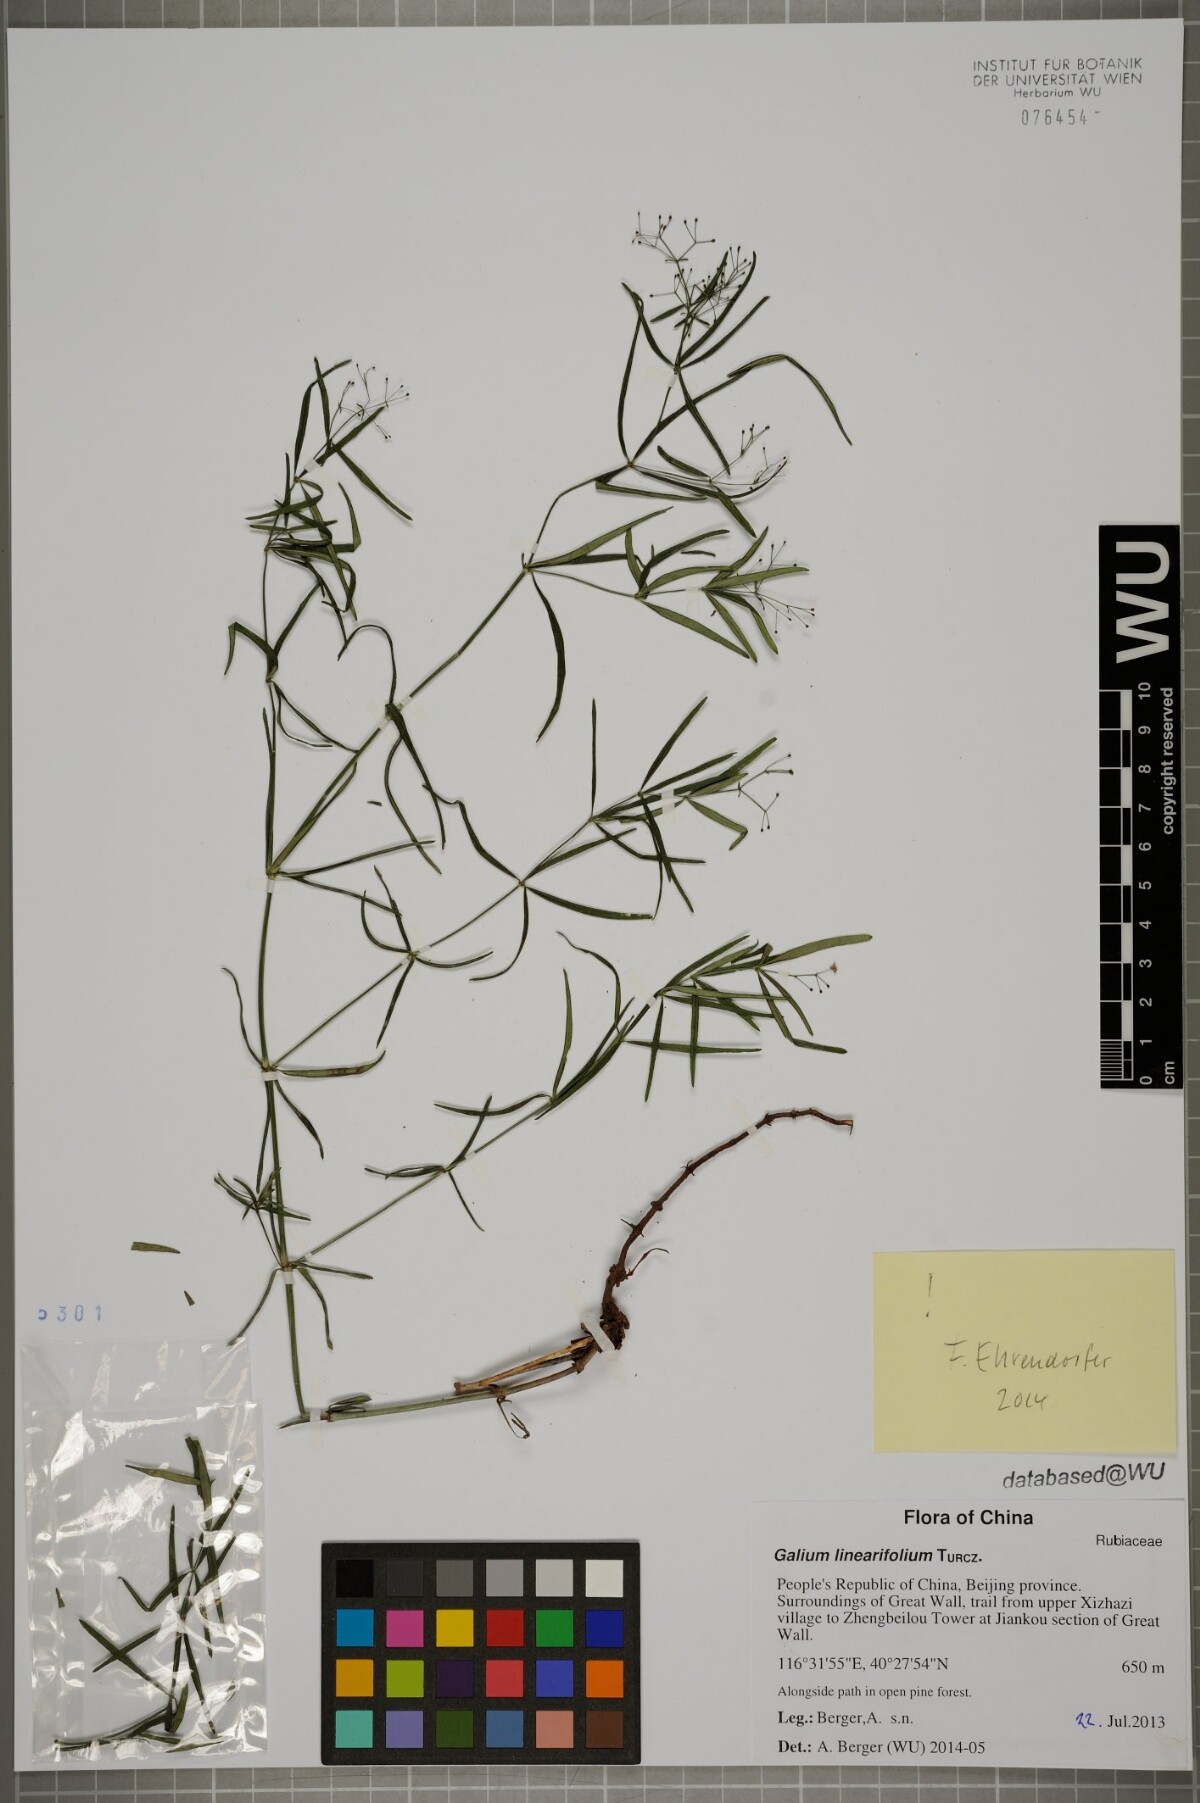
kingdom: Plantae
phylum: Tracheophyta
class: Magnoliopsida
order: Gentianales
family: Rubiaceae
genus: Galium
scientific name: Galium linearifolium
